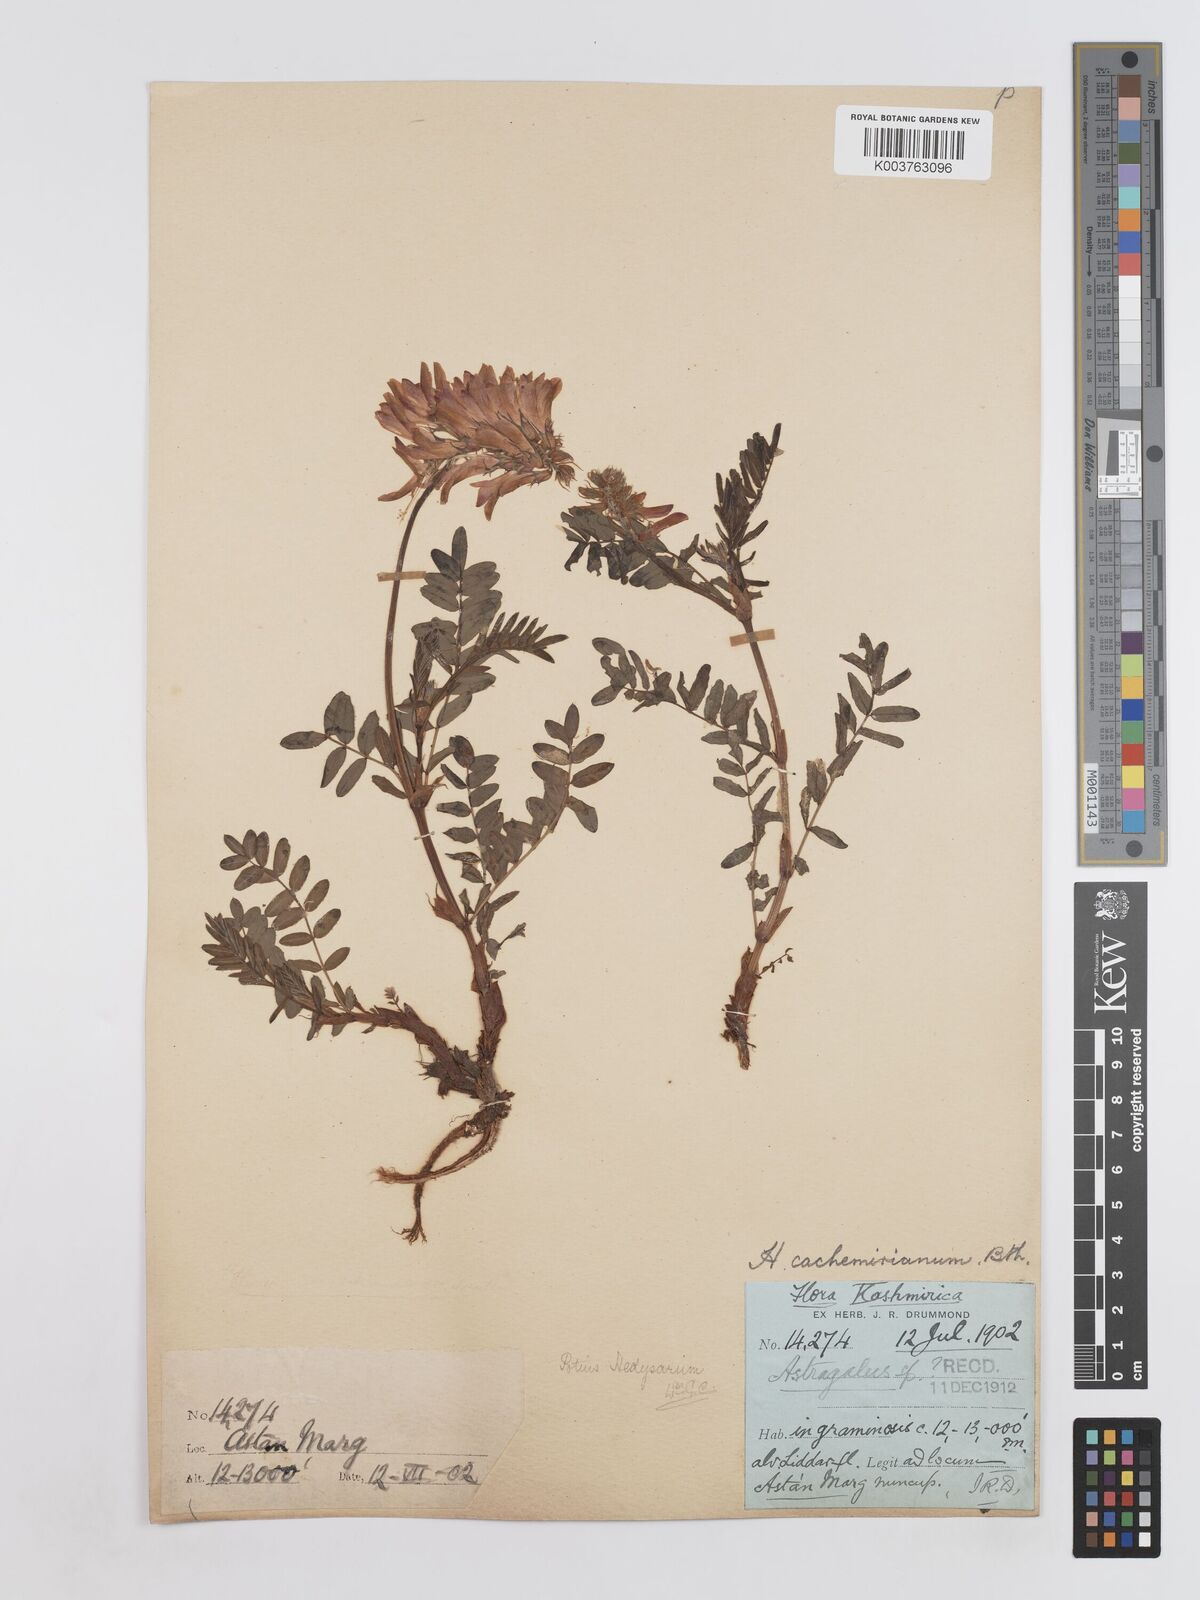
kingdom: Plantae
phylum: Tracheophyta
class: Magnoliopsida
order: Fabales
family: Fabaceae
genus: Hedysarum
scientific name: Hedysarum cachemirianum
